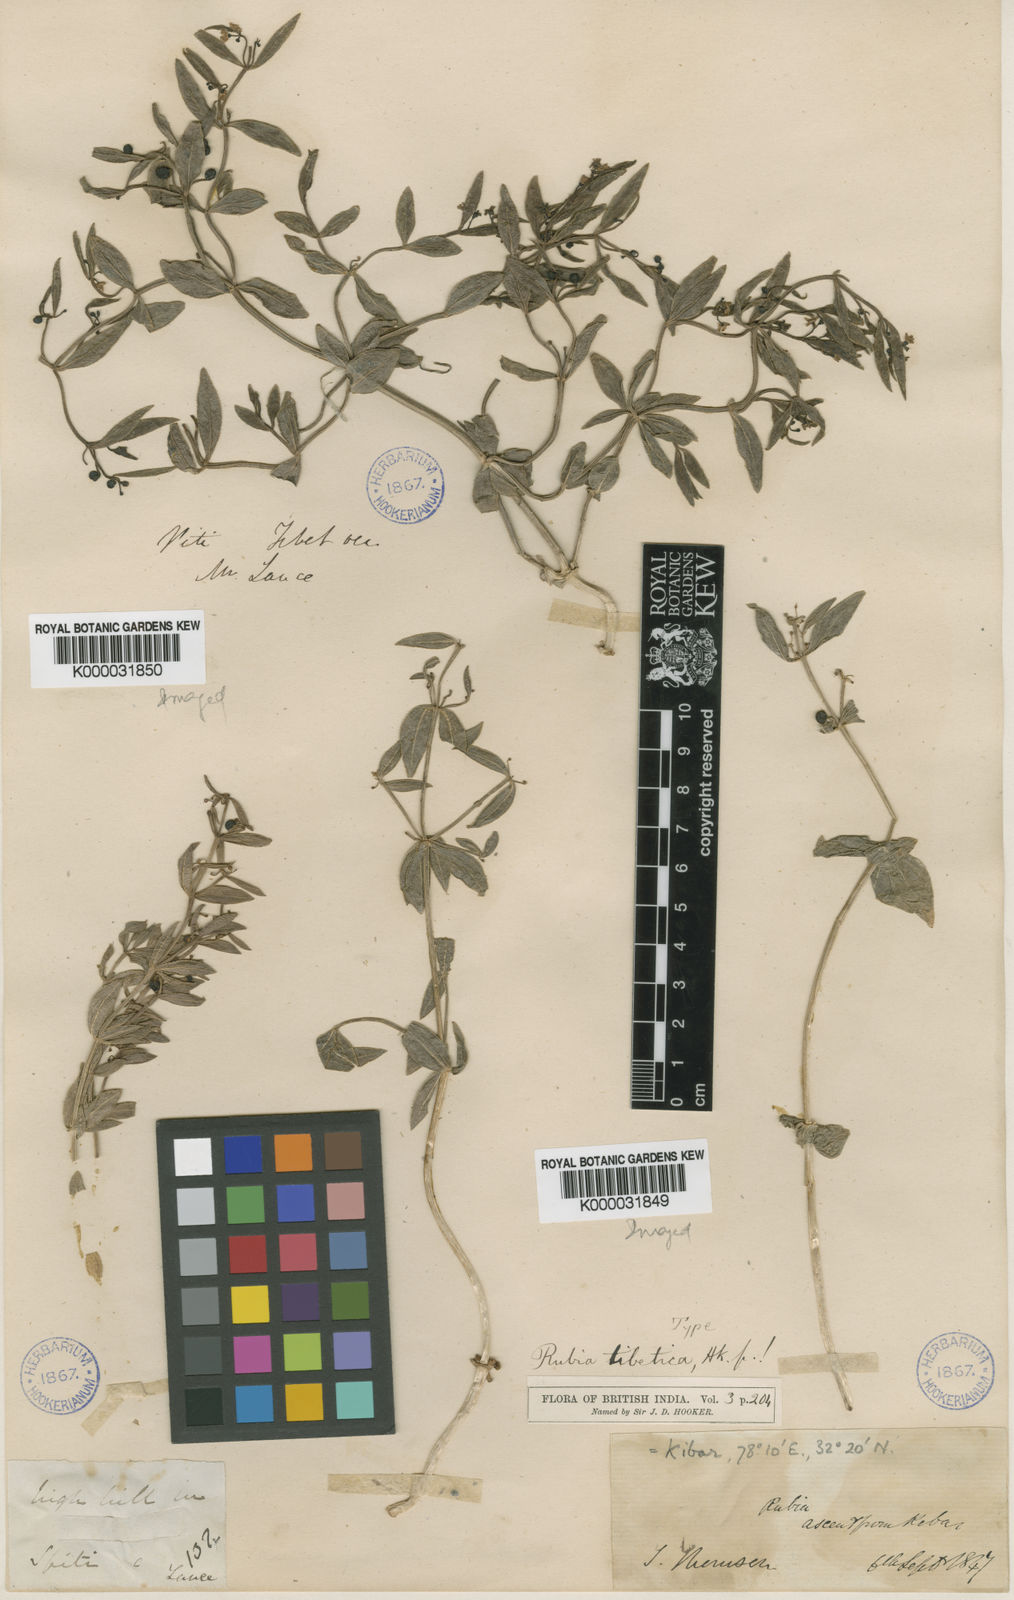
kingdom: Plantae
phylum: Tracheophyta
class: Magnoliopsida
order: Gentianales
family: Rubiaceae
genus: Rubia
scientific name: Rubia tibetica
